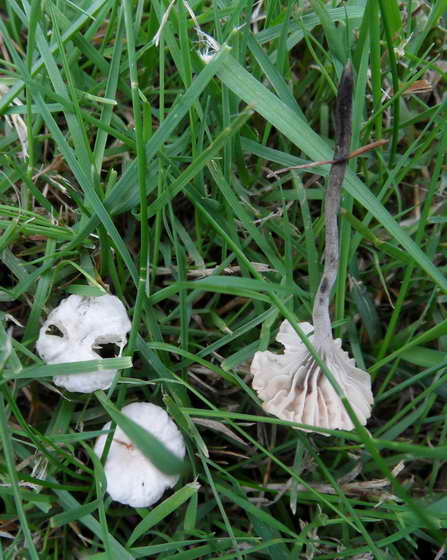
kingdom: Fungi
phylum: Basidiomycota
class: Agaricomycetes
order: Agaricales
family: Omphalotaceae
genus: Marasmiellus
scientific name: Marasmiellus tricolor
